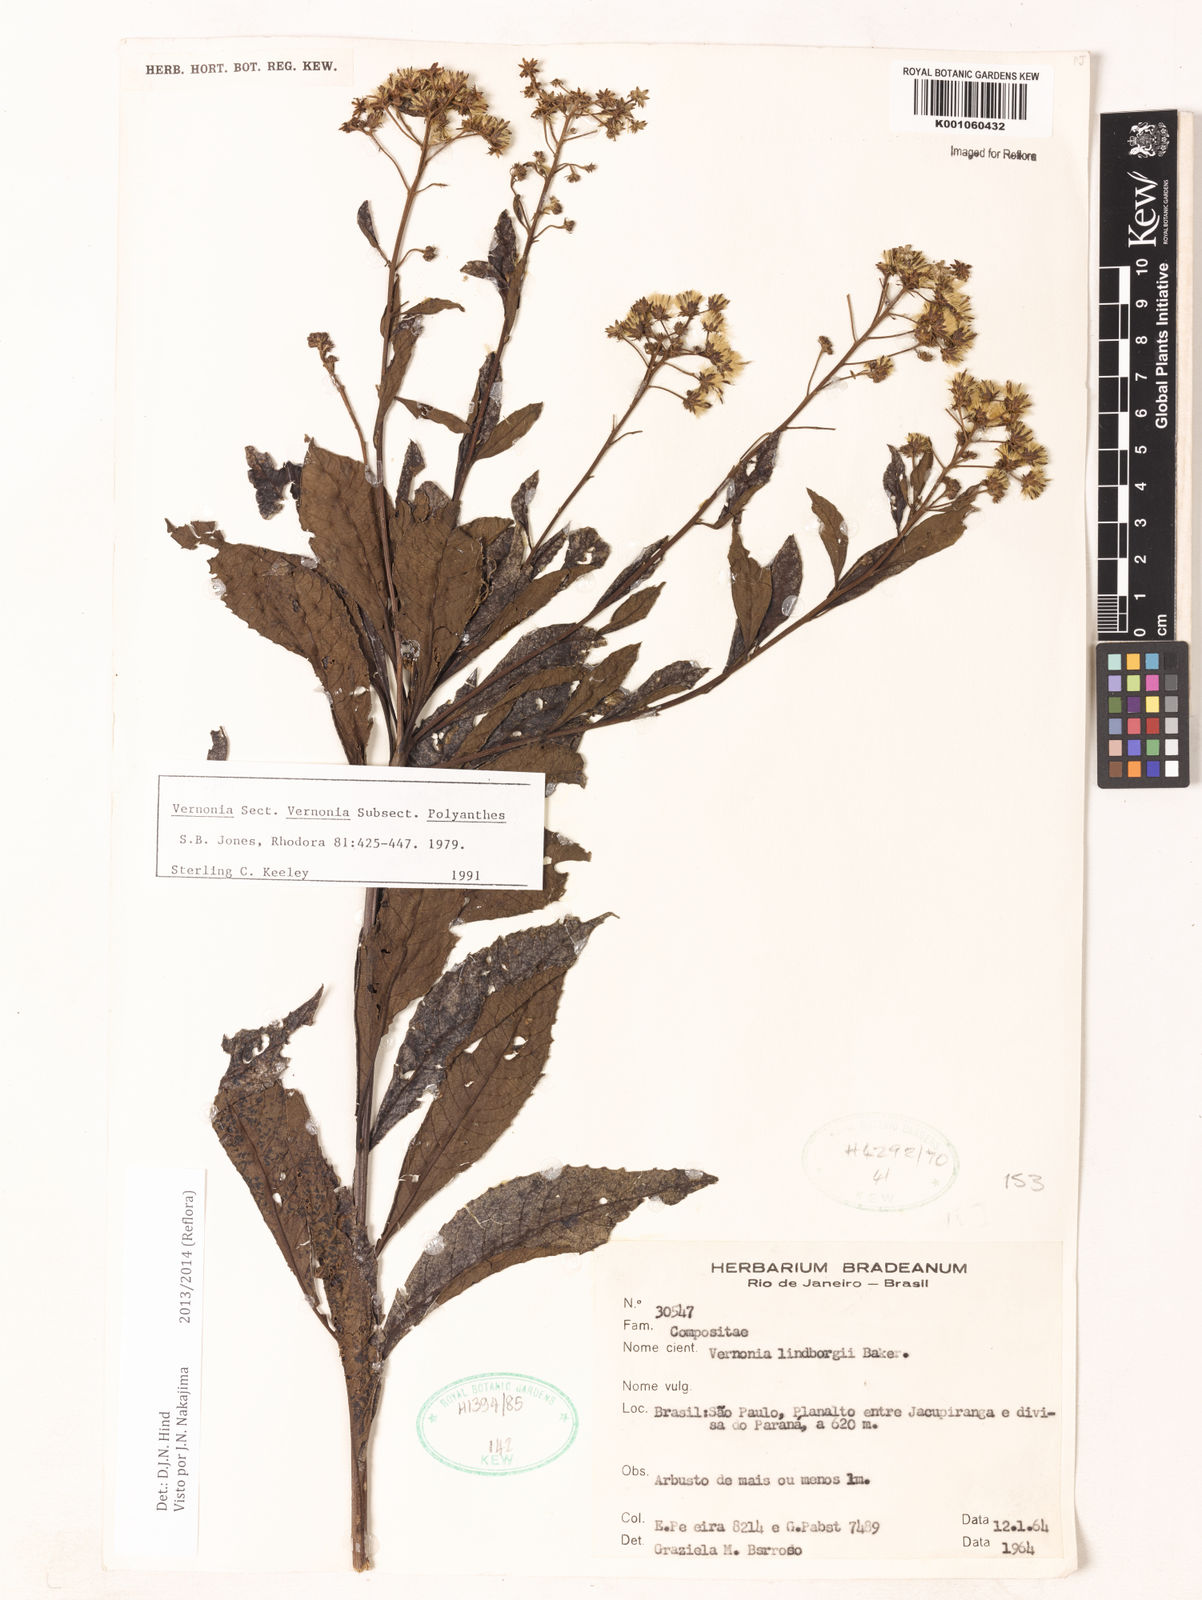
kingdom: Plantae
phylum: Tracheophyta
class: Magnoliopsida
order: Asterales
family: Asteraceae
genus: Vernonanthura
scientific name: Vernonanthura lindbergii
